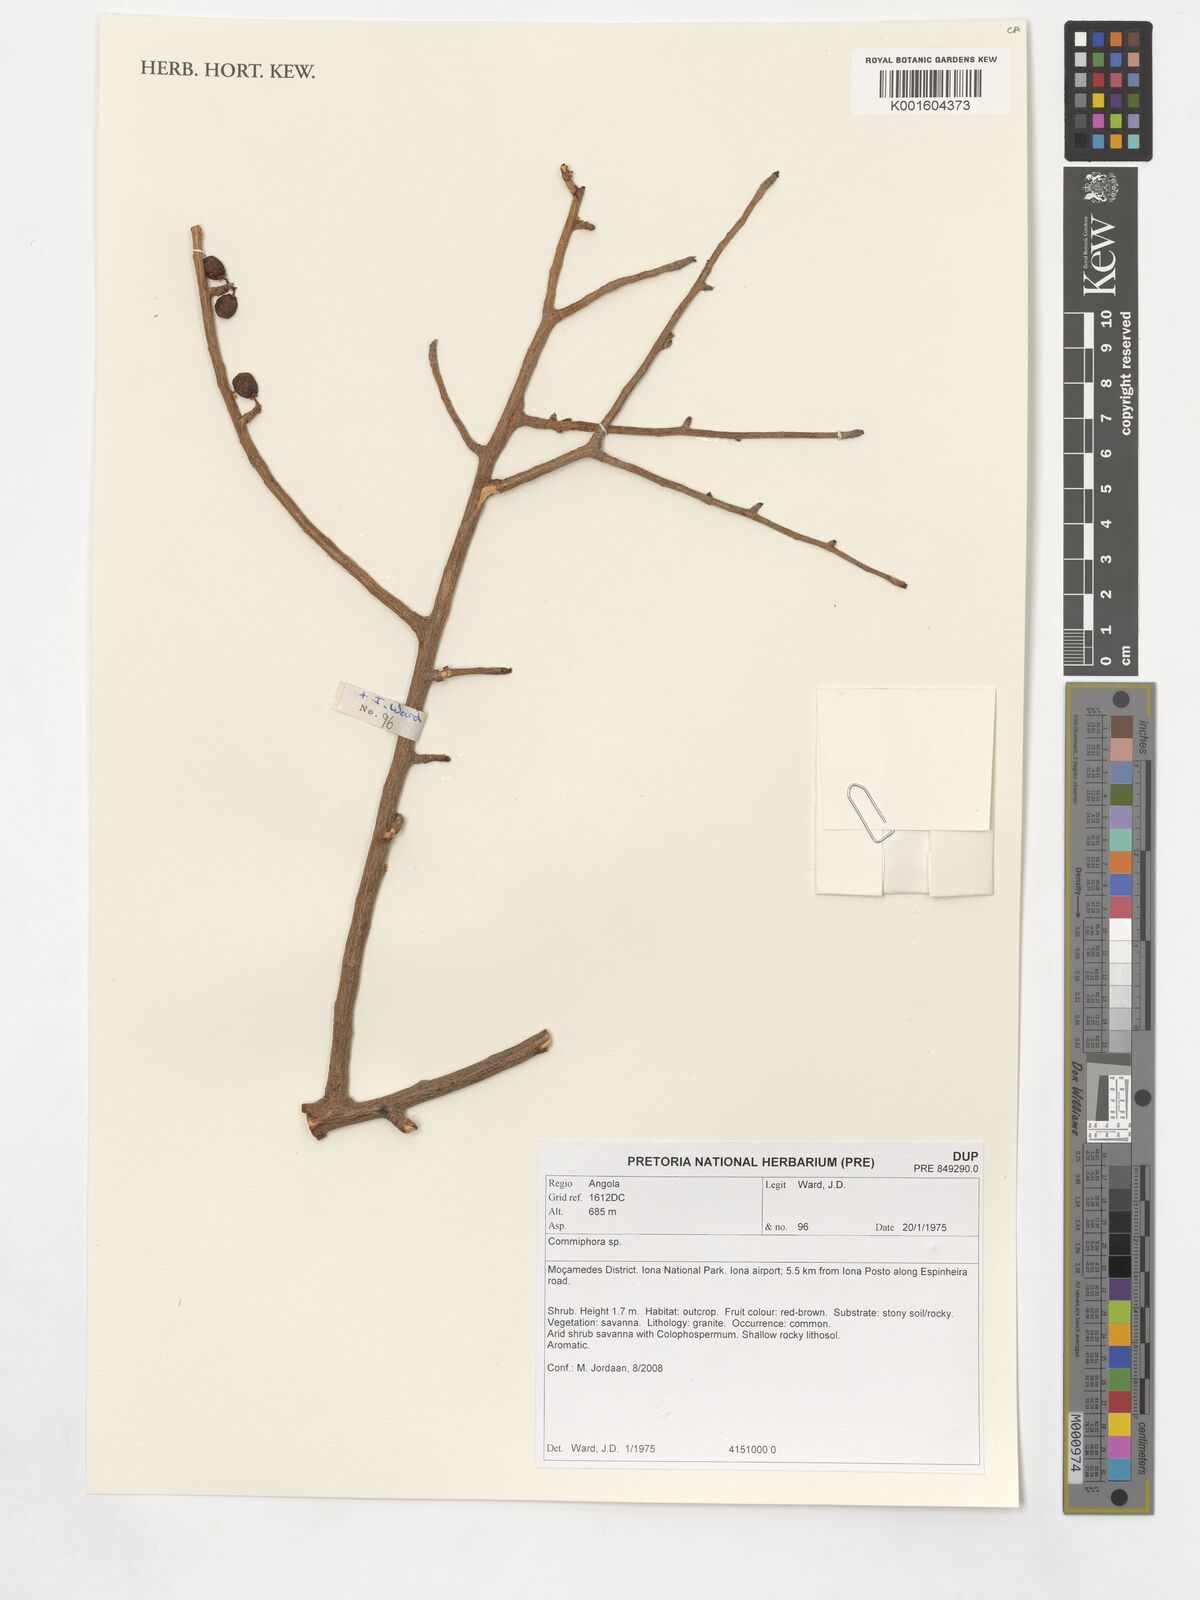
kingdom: Plantae
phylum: Tracheophyta
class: Magnoliopsida
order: Sapindales
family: Burseraceae
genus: Commiphora
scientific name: Commiphora
